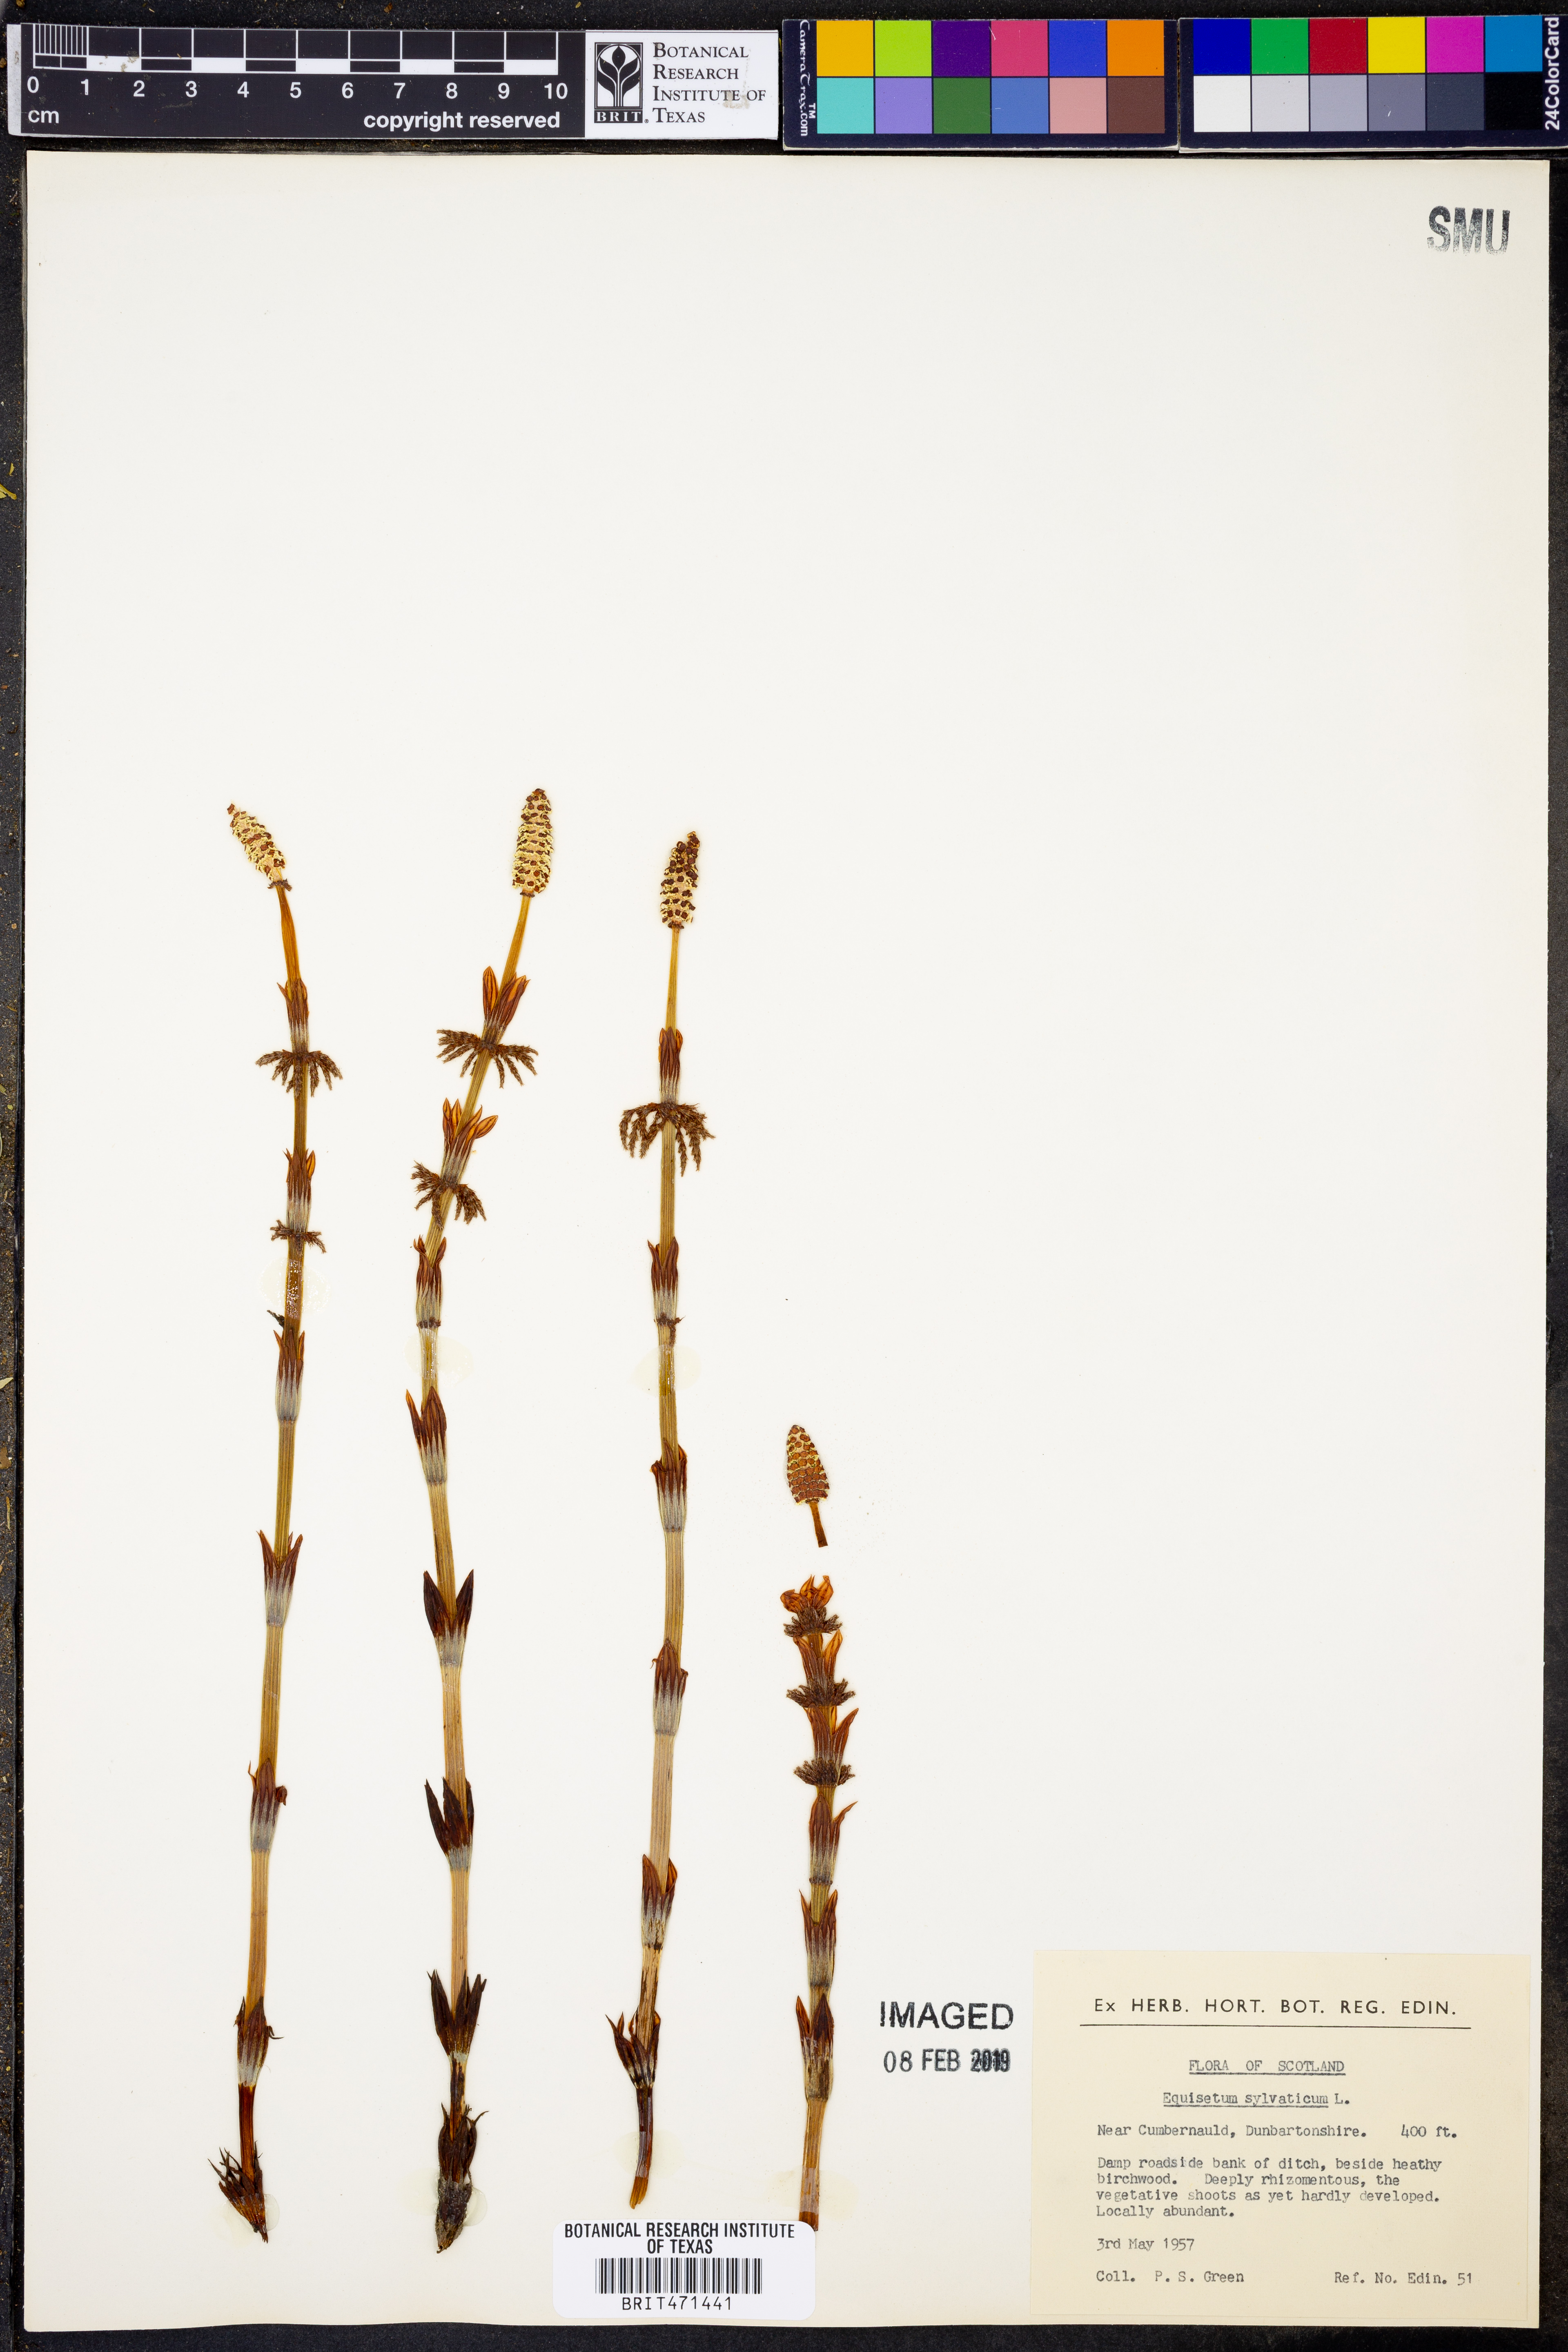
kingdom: Plantae
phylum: Tracheophyta
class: Polypodiopsida
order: Equisetales
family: Equisetaceae
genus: Equisetum
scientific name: Equisetum sylvaticum
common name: Wood horsetail
